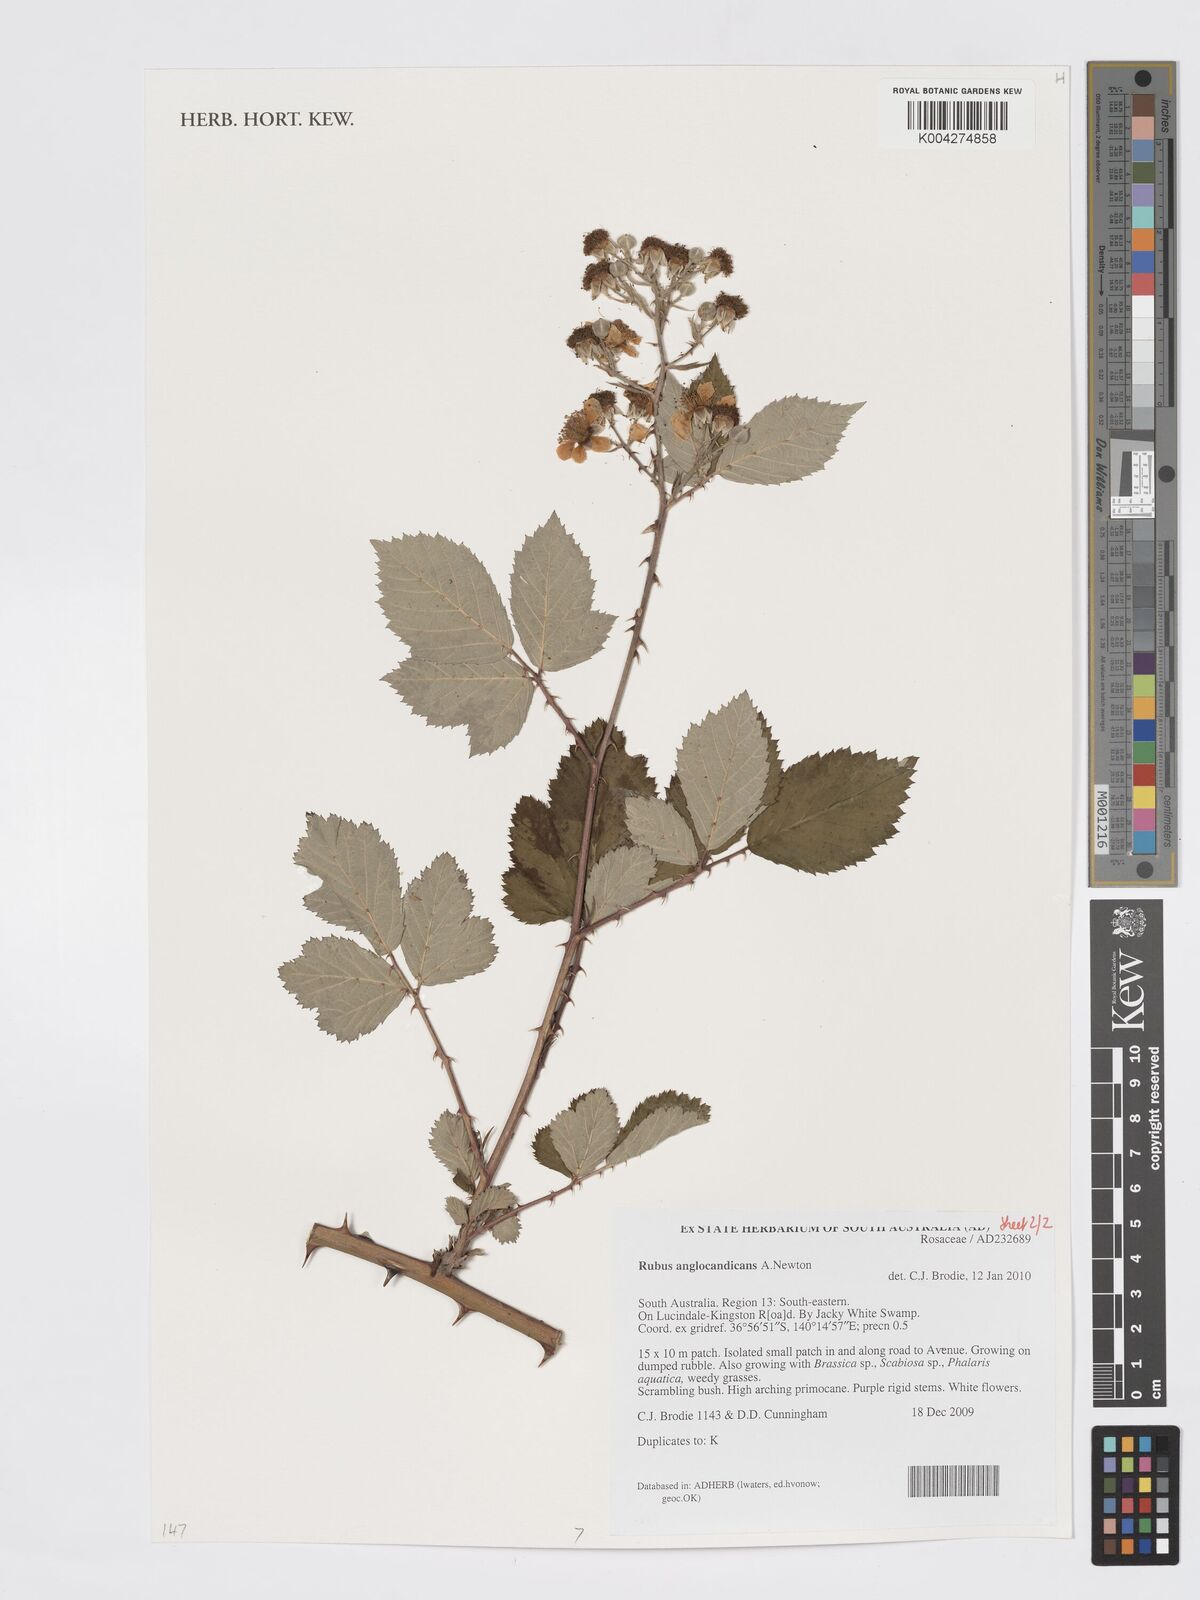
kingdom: Plantae
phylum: Tracheophyta
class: Magnoliopsida
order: Rosales
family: Rosaceae
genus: Rubus
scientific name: Rubus anglocandicans
